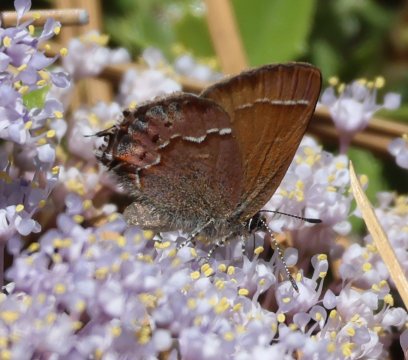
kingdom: Animalia
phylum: Arthropoda
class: Insecta
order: Lepidoptera
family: Lycaenidae
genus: Mitoura
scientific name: Mitoura gryneus
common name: Juniper Hairstreak
